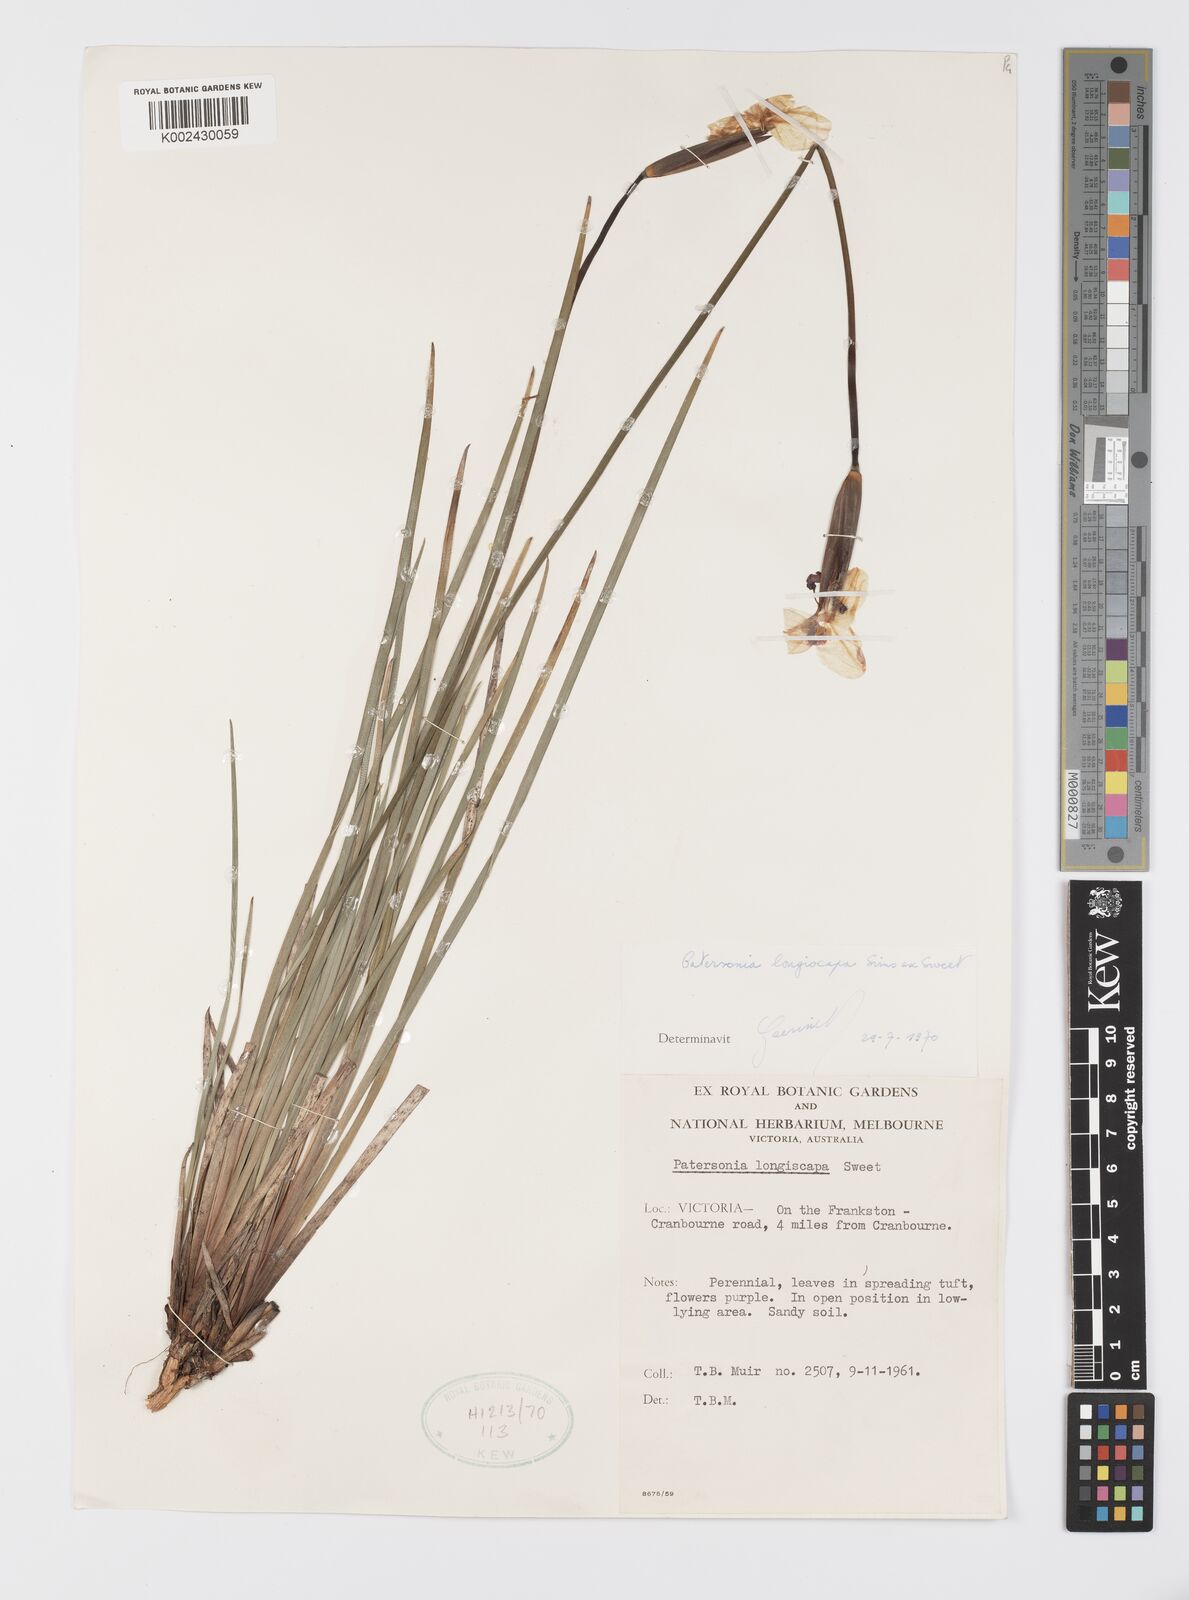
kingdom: Plantae
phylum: Tracheophyta
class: Liliopsida
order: Asparagales
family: Iridaceae
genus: Patersonia
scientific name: Patersonia occidentalis
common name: Long purple-flag
